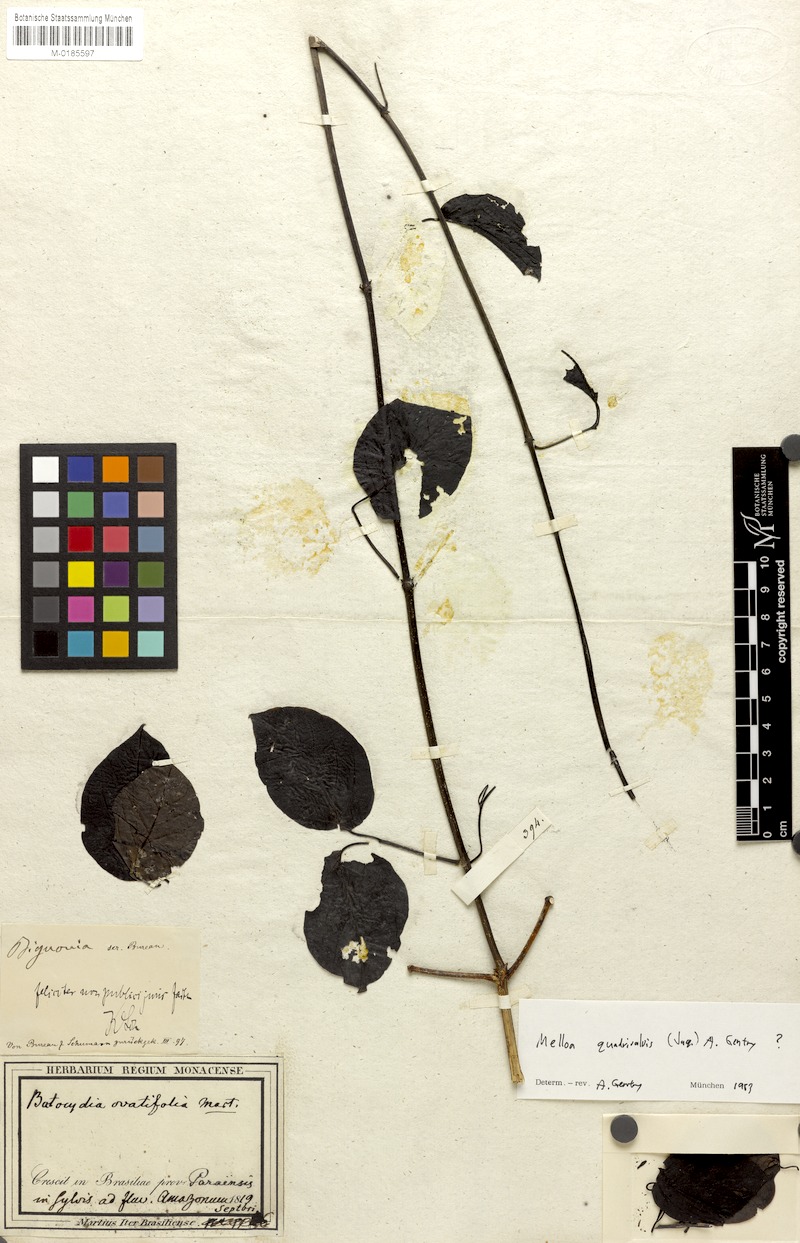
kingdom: Plantae
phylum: Tracheophyta
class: Magnoliopsida
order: Lamiales
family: Bignoniaceae
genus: Dolichandra
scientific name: Dolichandra quadrivalvis
